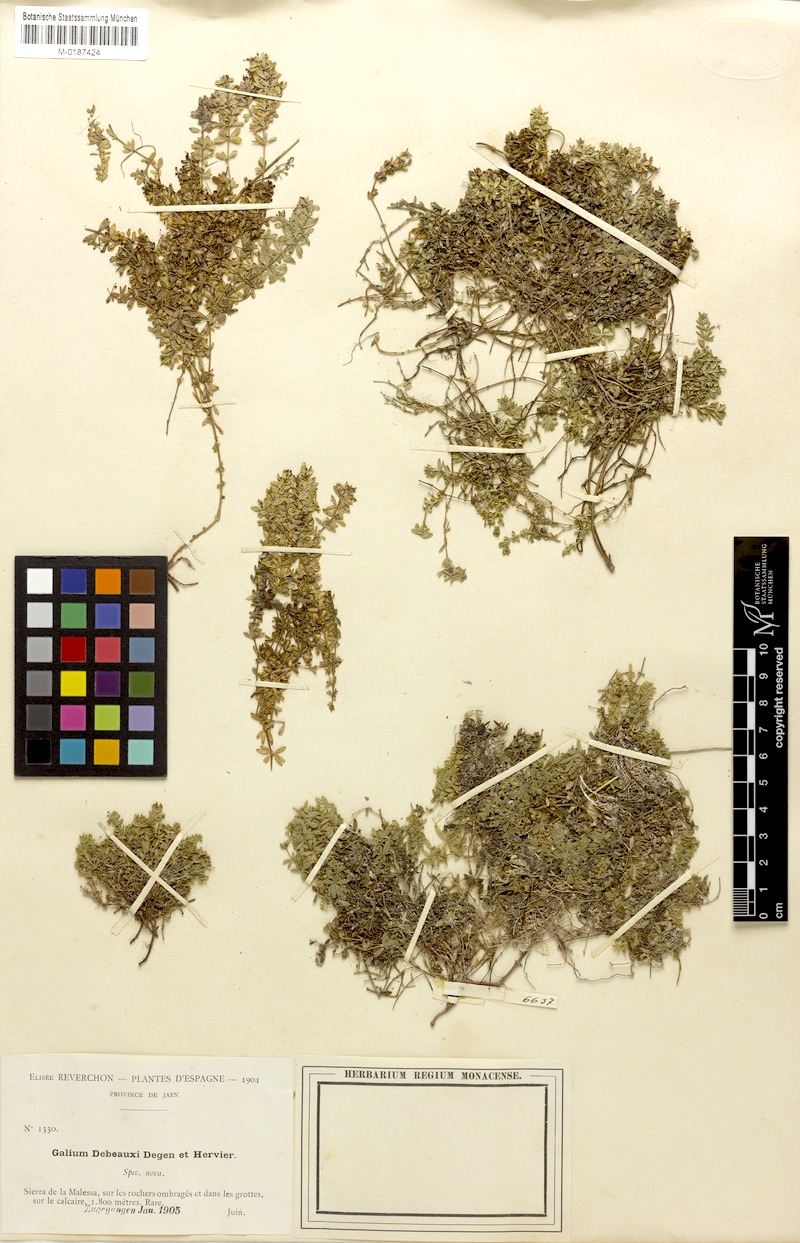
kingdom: Plantae
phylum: Tracheophyta
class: Magnoliopsida
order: Gentianales
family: Rubiaceae
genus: Galium
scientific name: Galium erythrorrhizon
